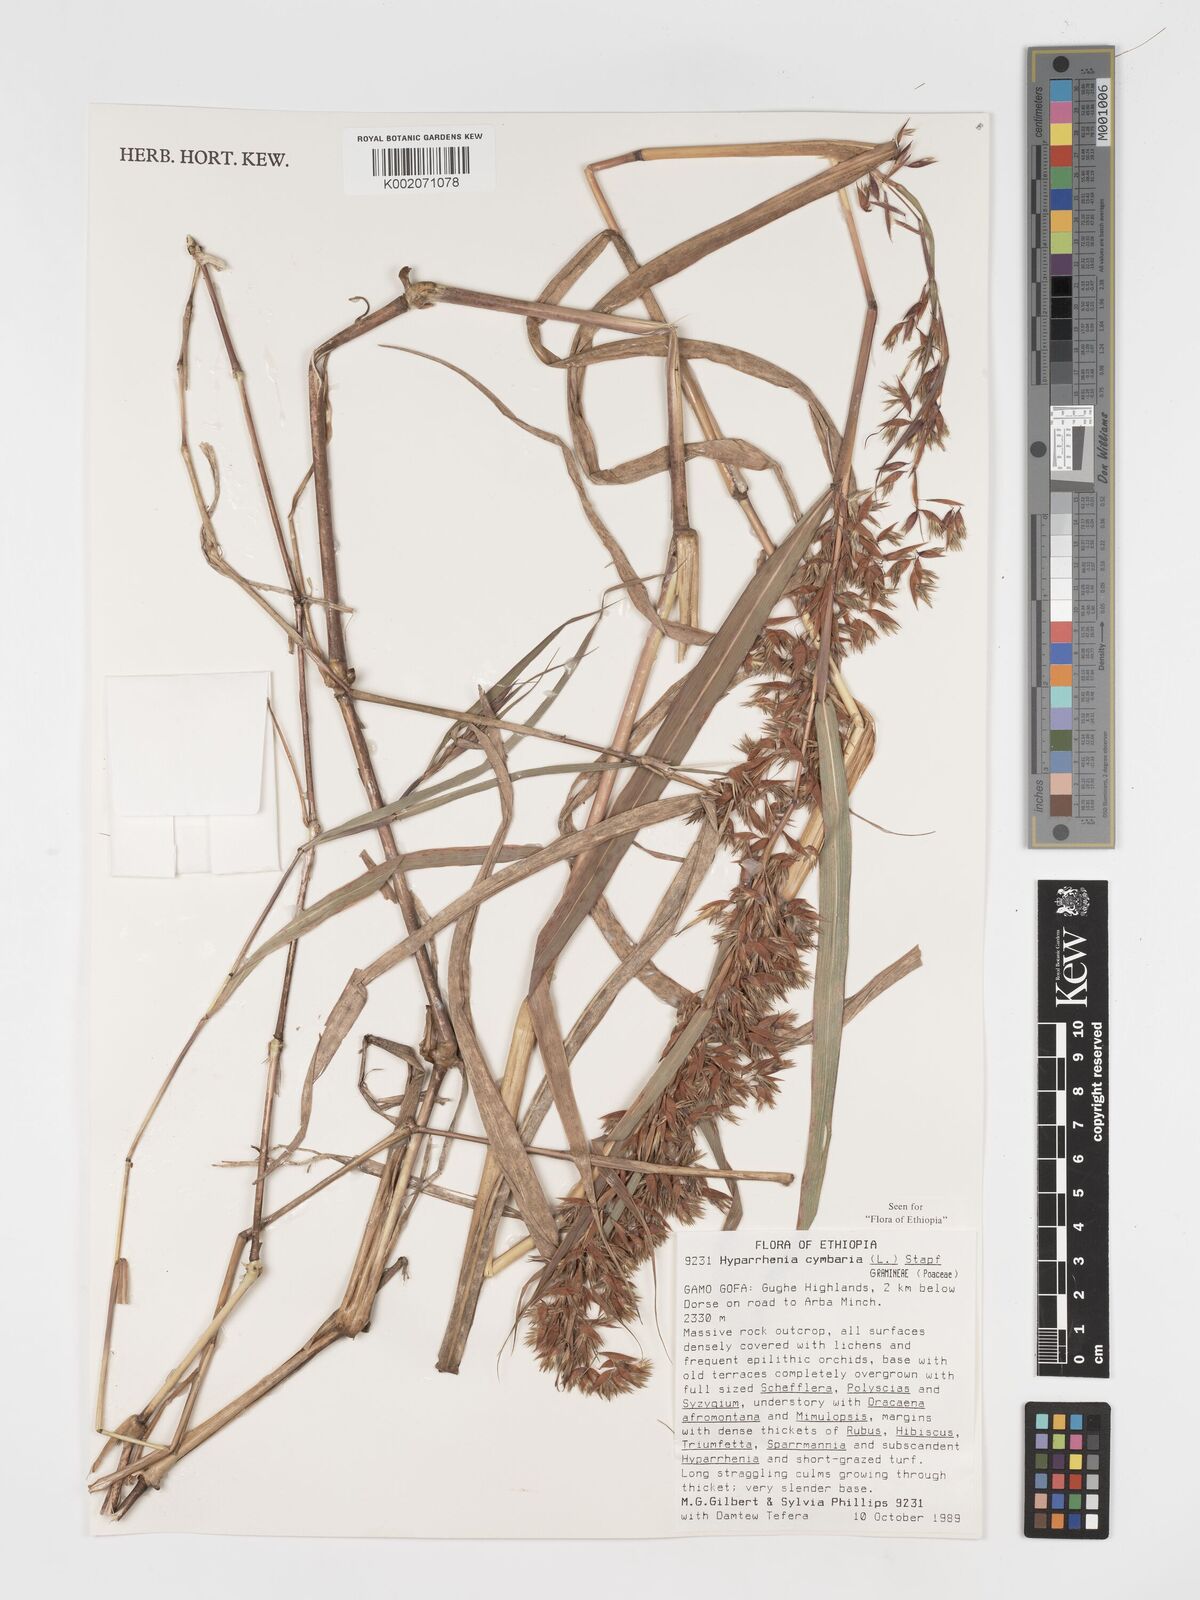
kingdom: Plantae
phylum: Tracheophyta
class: Liliopsida
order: Poales
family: Poaceae
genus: Hyparrhenia
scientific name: Hyparrhenia cymbaria
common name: Boat thatching grass
